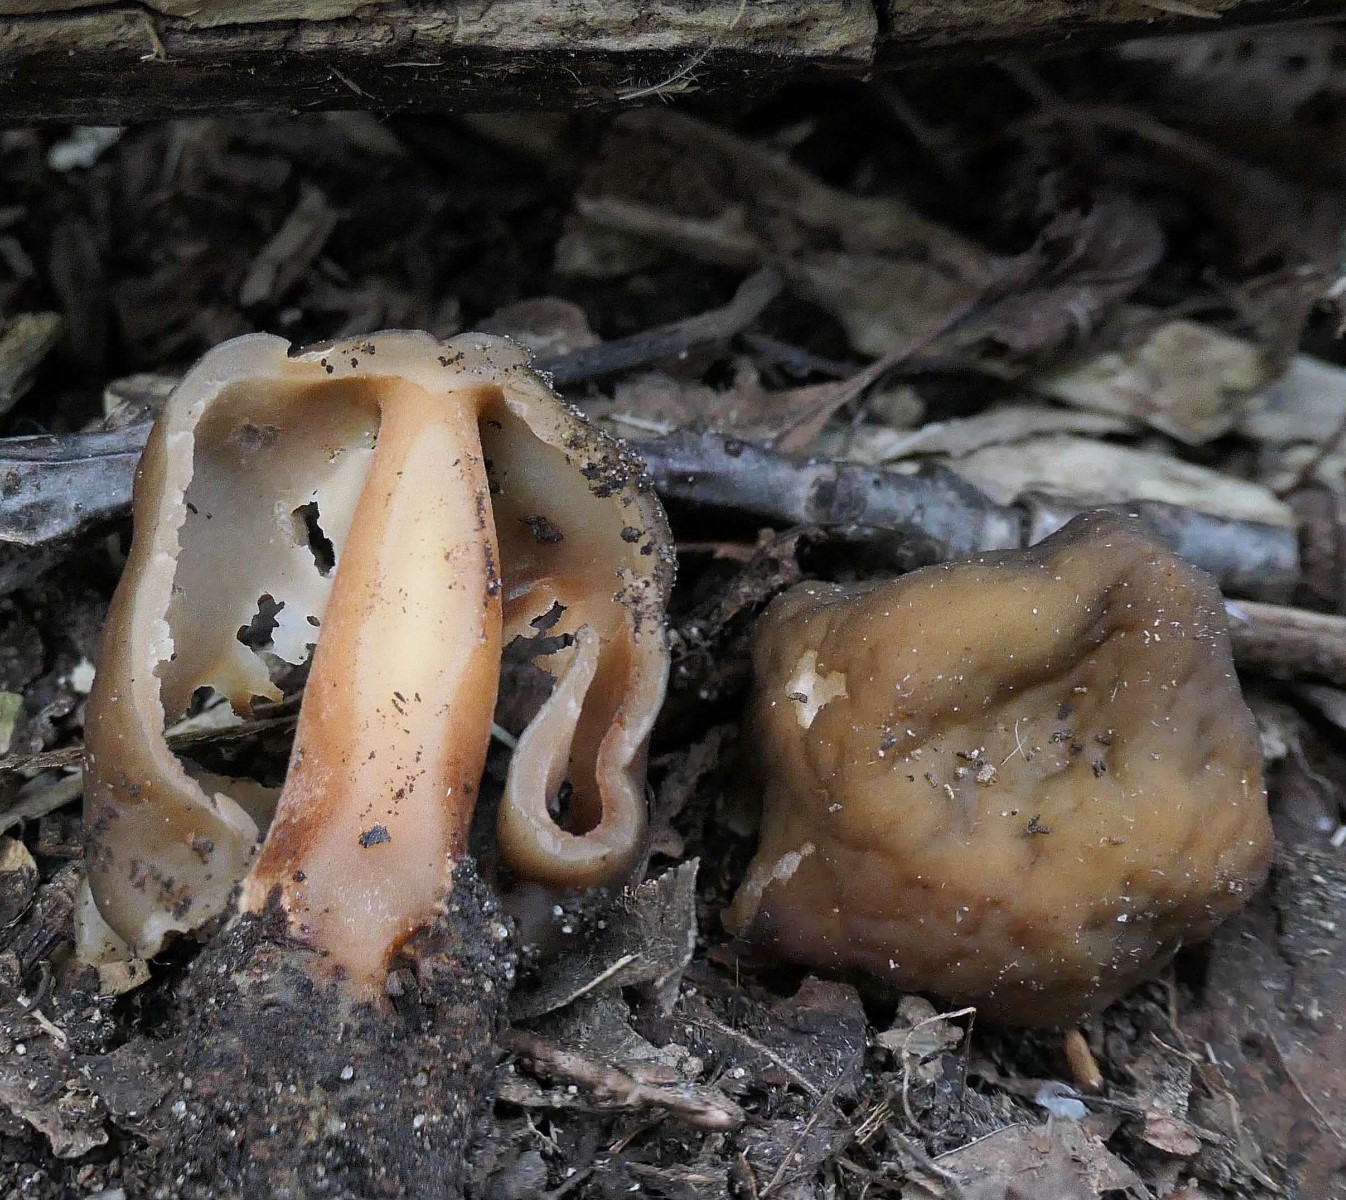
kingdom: Fungi
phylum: Ascomycota
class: Pezizomycetes
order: Pezizales
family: Morchellaceae
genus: Verpa
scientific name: Verpa conica
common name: glat klokkemorkel
